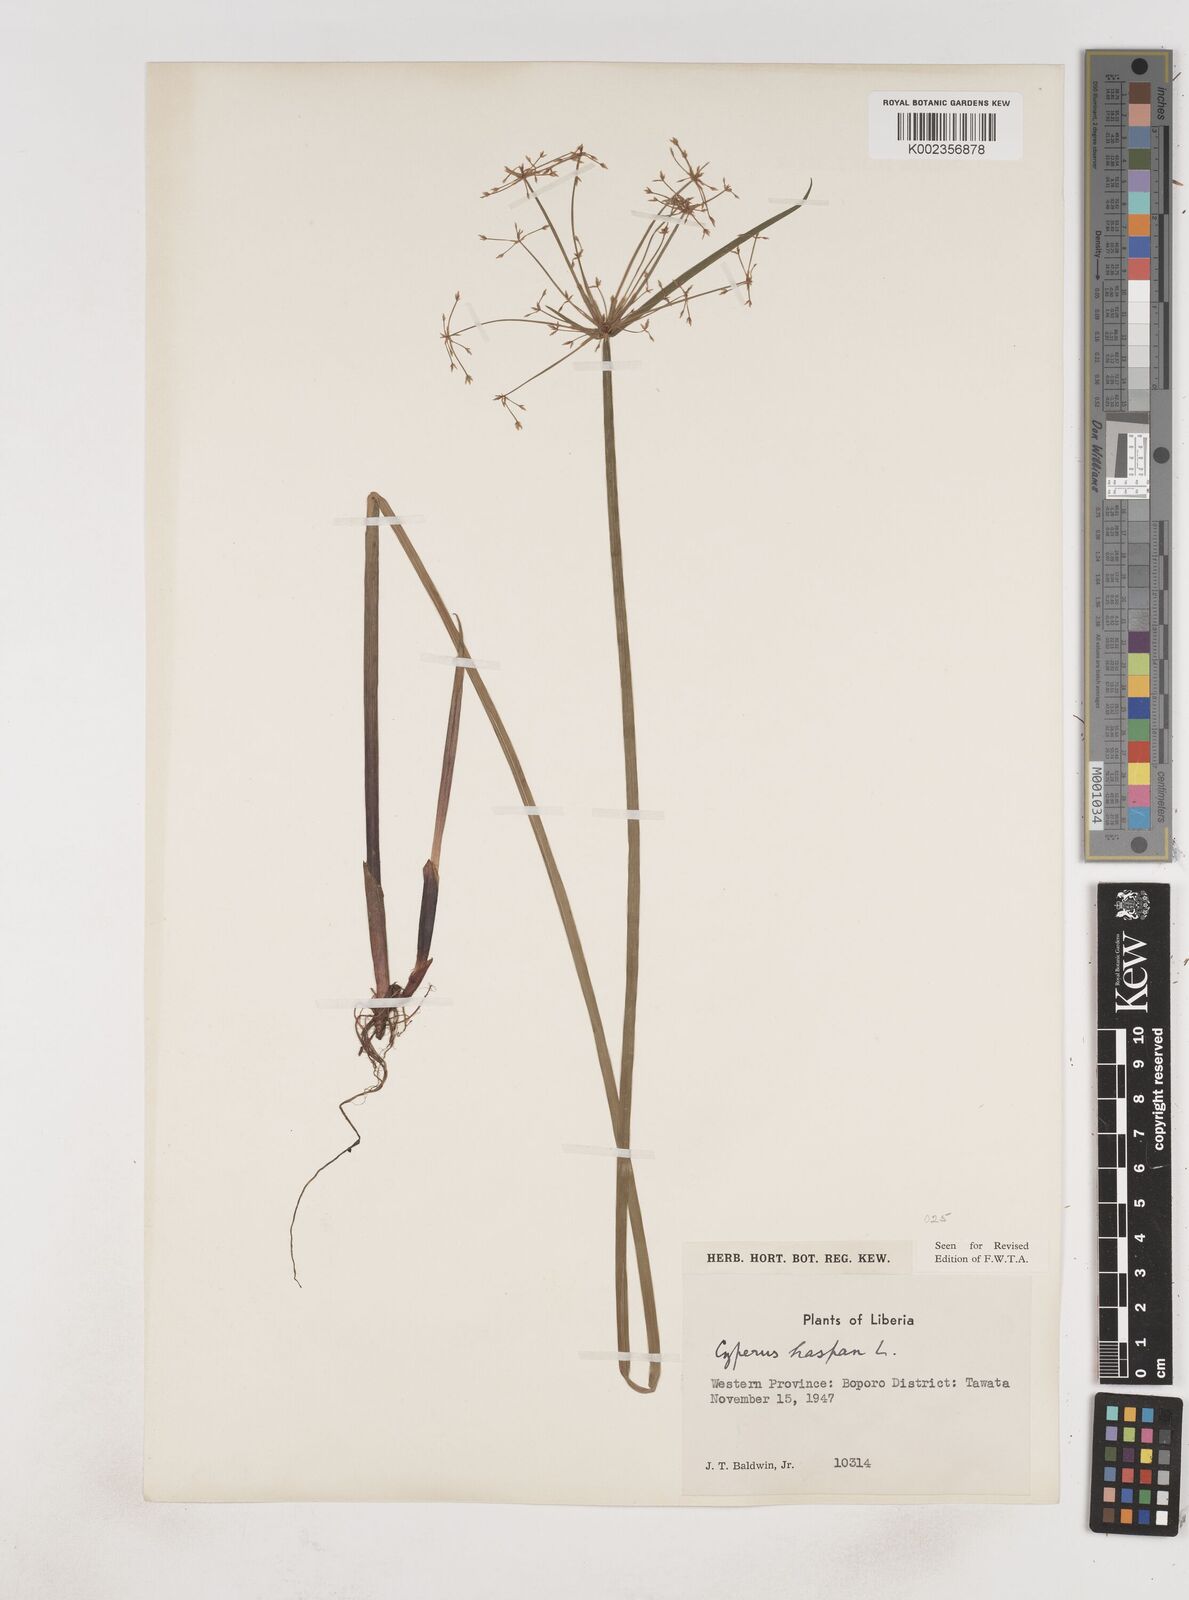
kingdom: Plantae
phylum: Tracheophyta
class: Liliopsida
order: Poales
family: Cyperaceae
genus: Cyperus
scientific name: Cyperus haspan
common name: Haspan flatsedge
